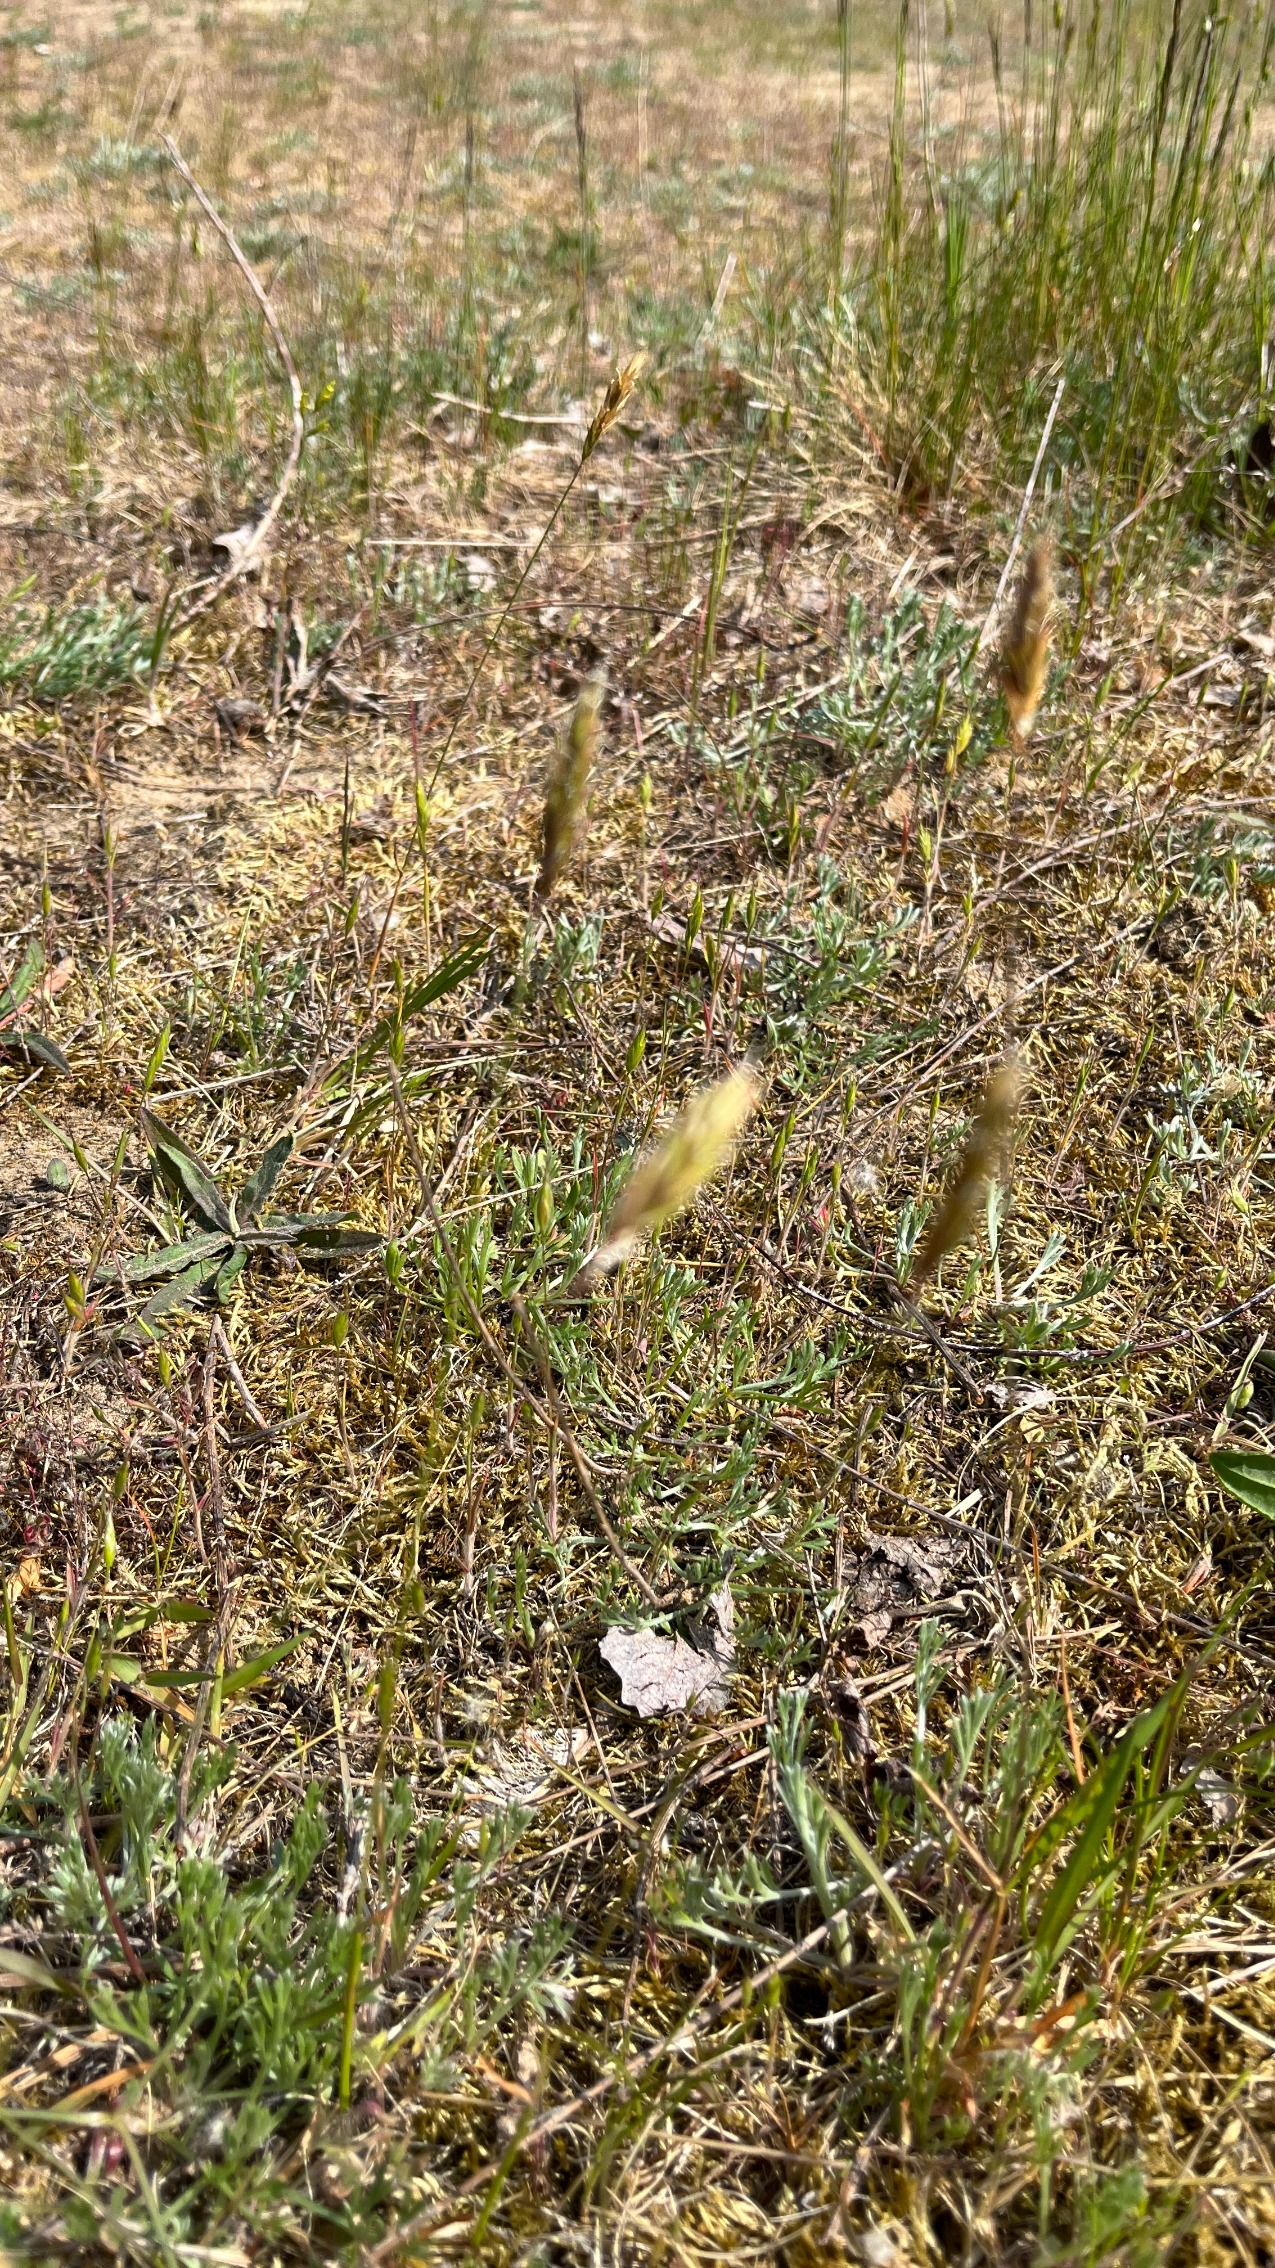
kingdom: Plantae
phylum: Tracheophyta
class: Liliopsida
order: Poales
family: Poaceae
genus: Anthoxanthum
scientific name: Anthoxanthum odoratum
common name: Vellugtende gulaks
